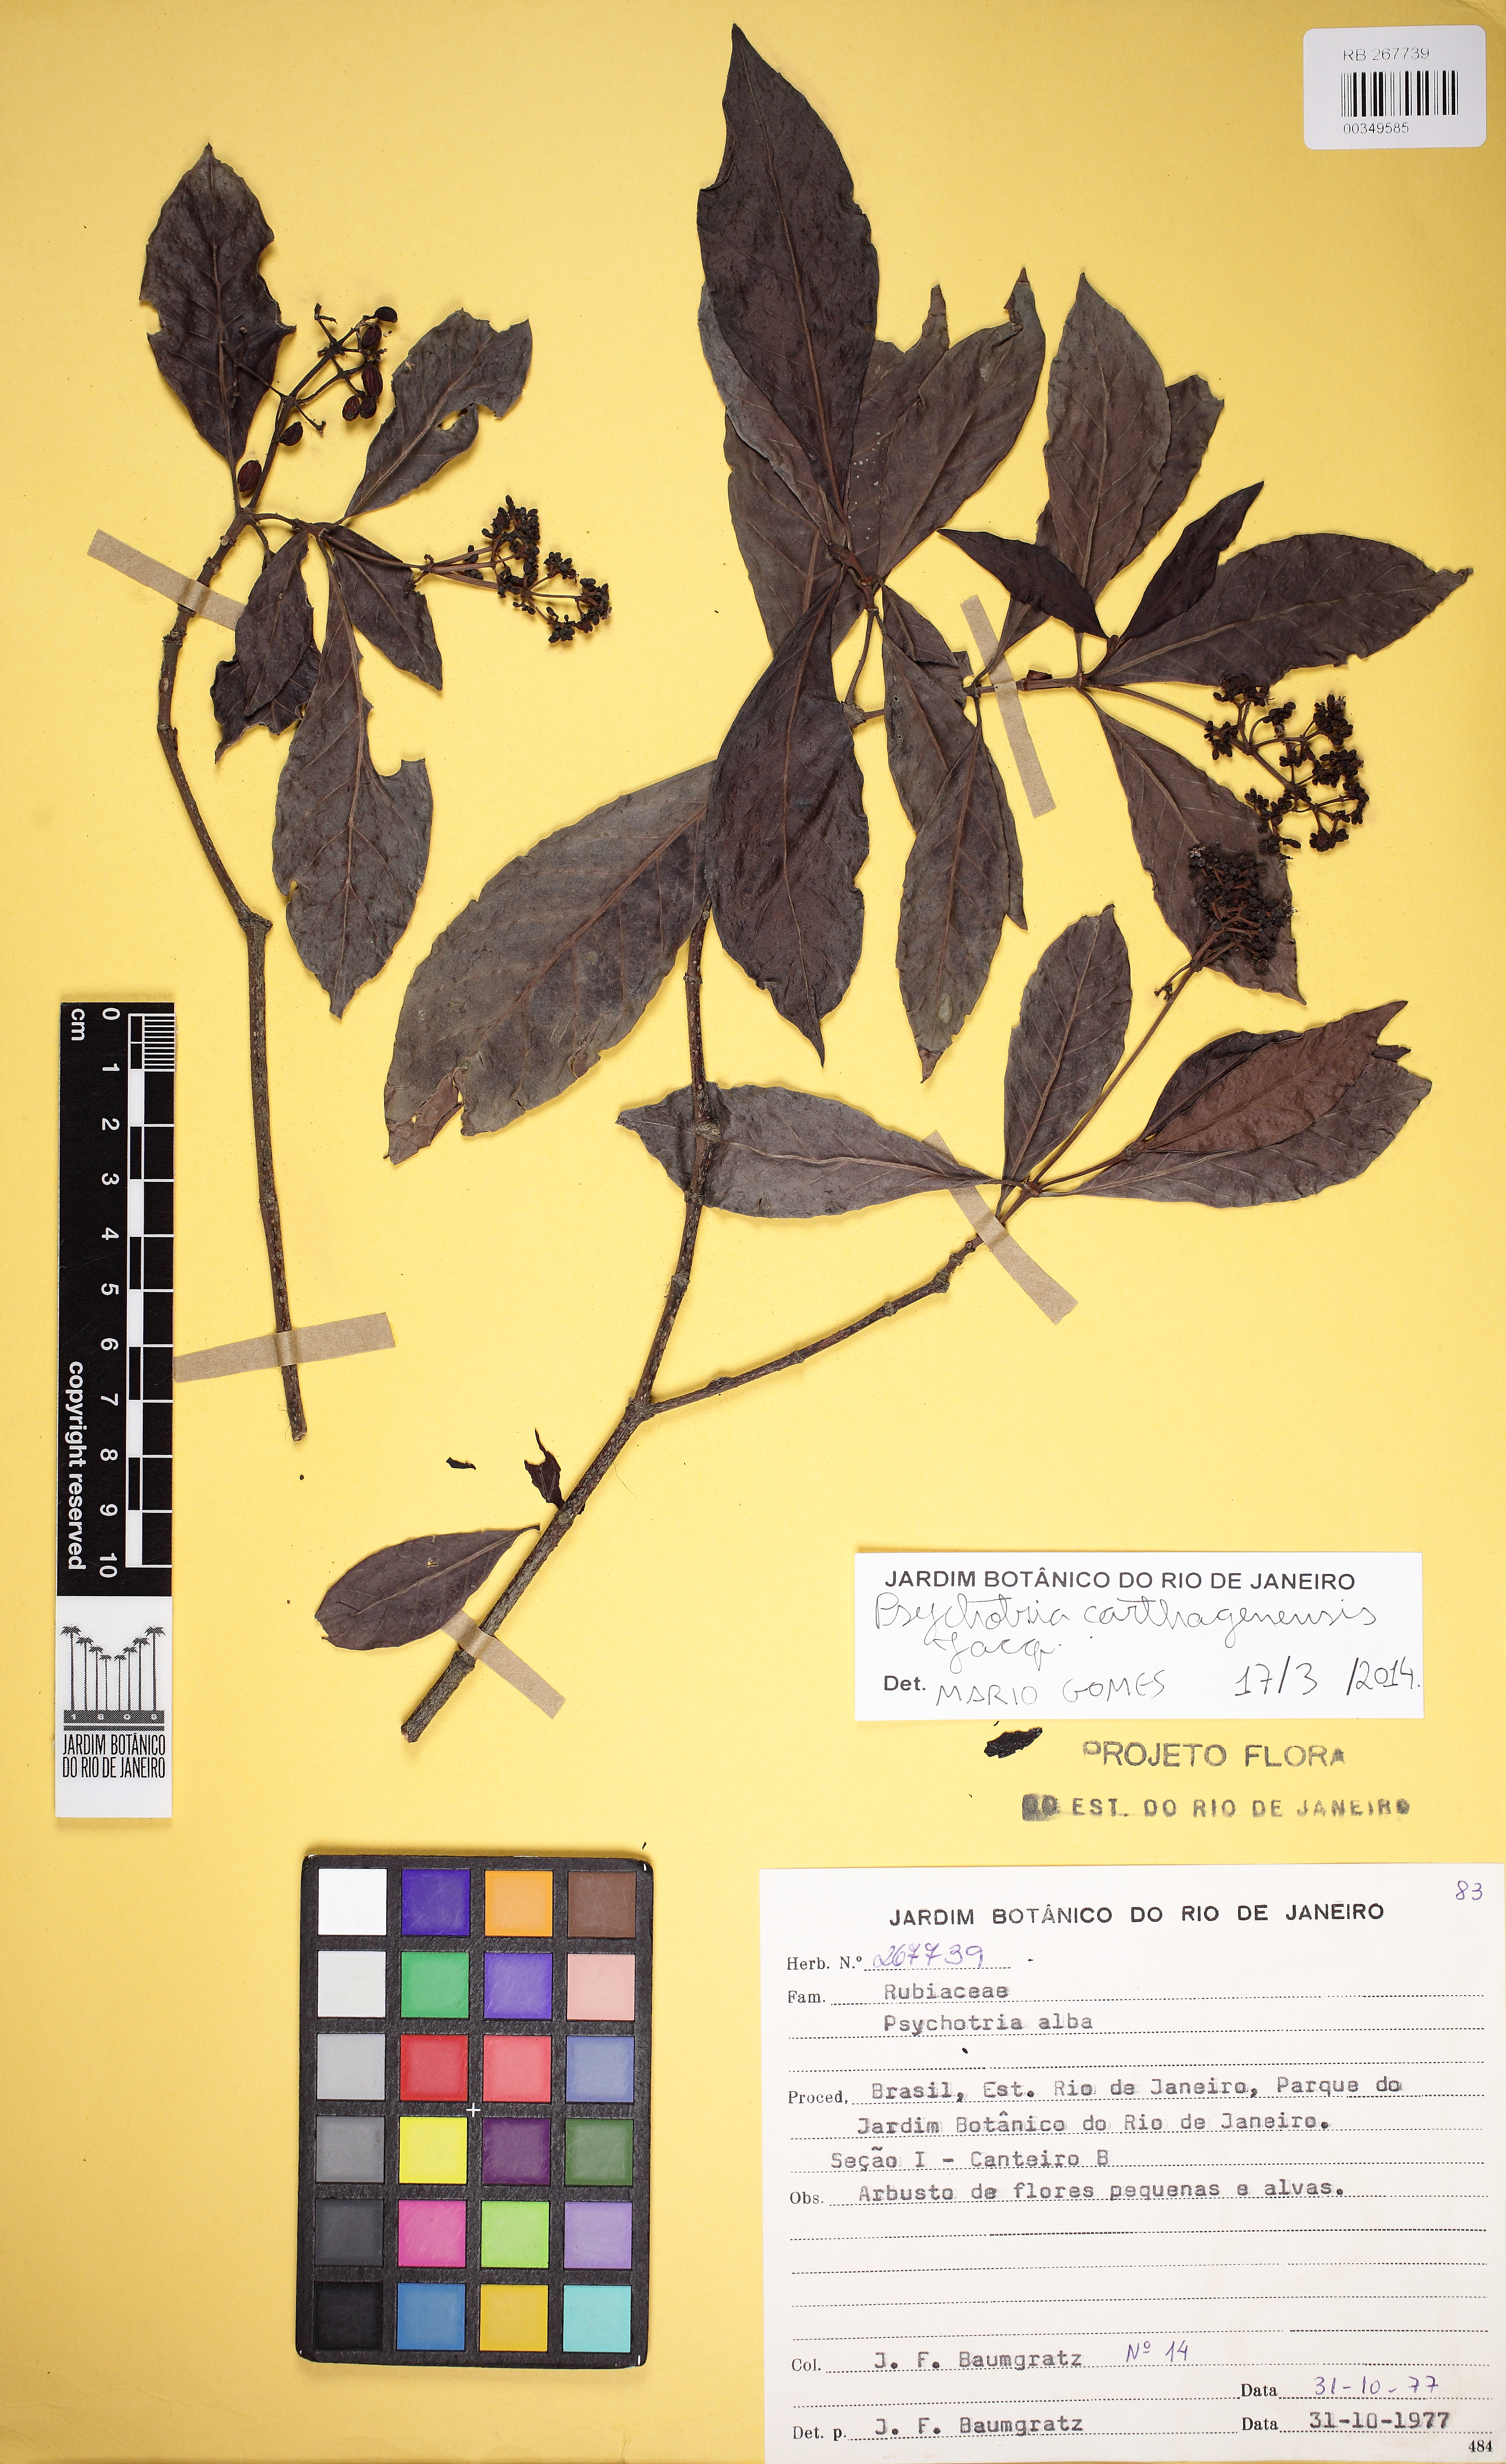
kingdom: Plantae
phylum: Tracheophyta
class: Magnoliopsida
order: Gentianales
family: Rubiaceae
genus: Psychotria
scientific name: Psychotria carthagenensis
